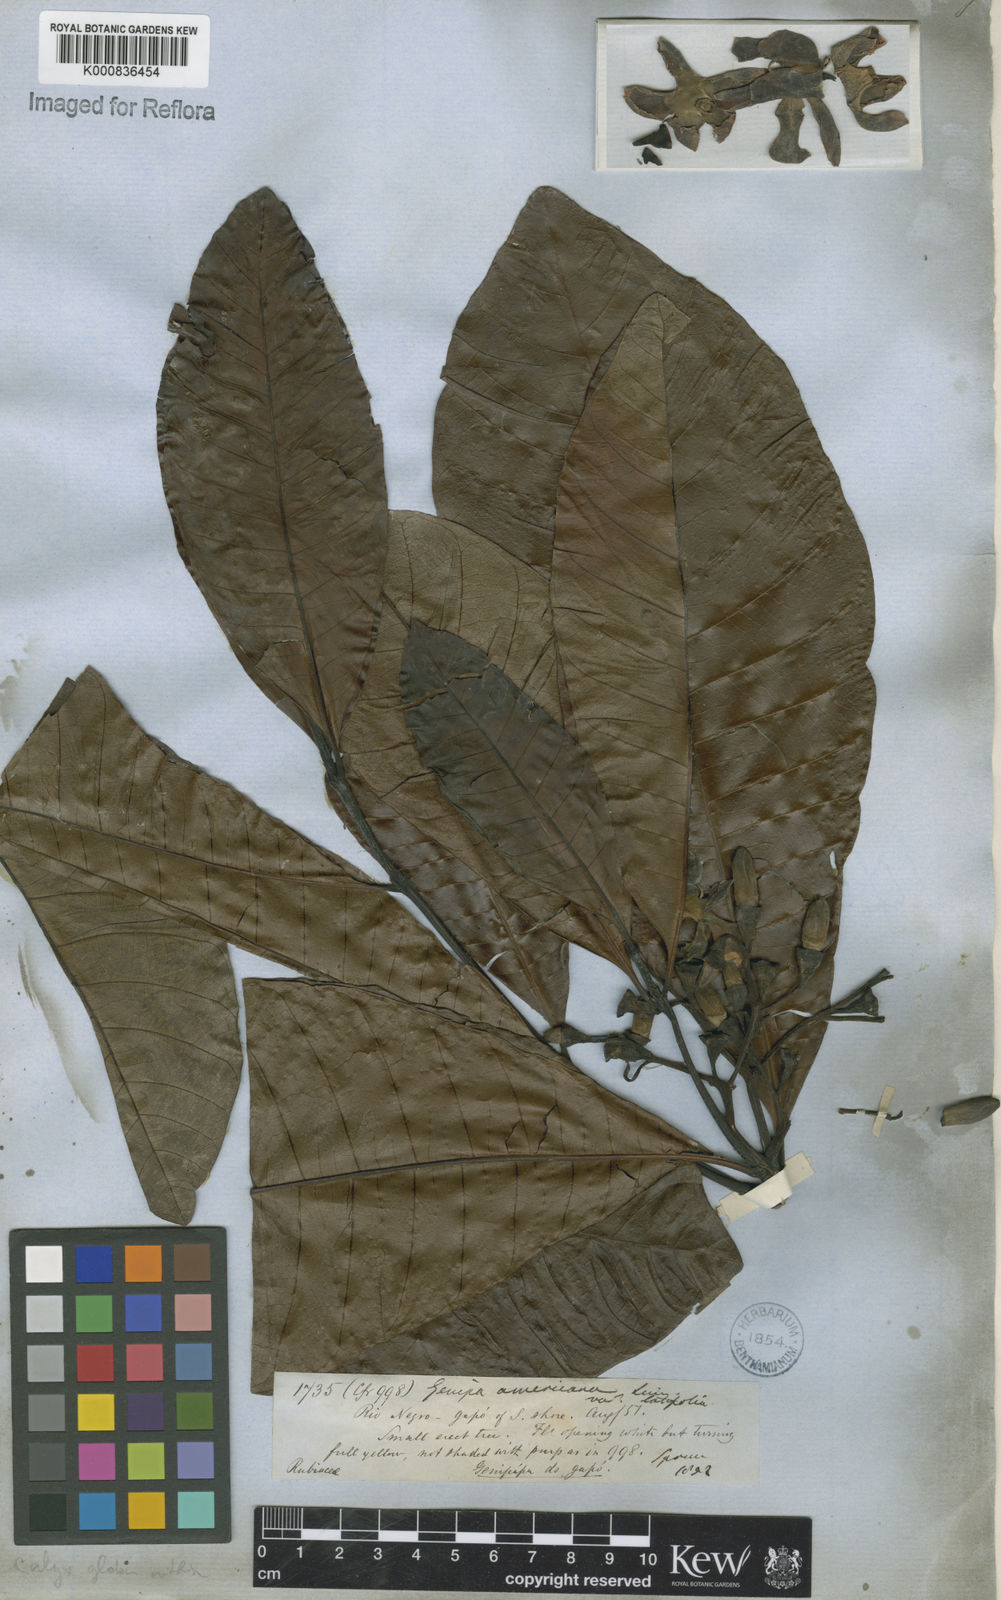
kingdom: Plantae
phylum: Tracheophyta
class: Magnoliopsida
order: Gentianales
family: Rubiaceae
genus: Genipa
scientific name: Genipa americana
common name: Genipap
